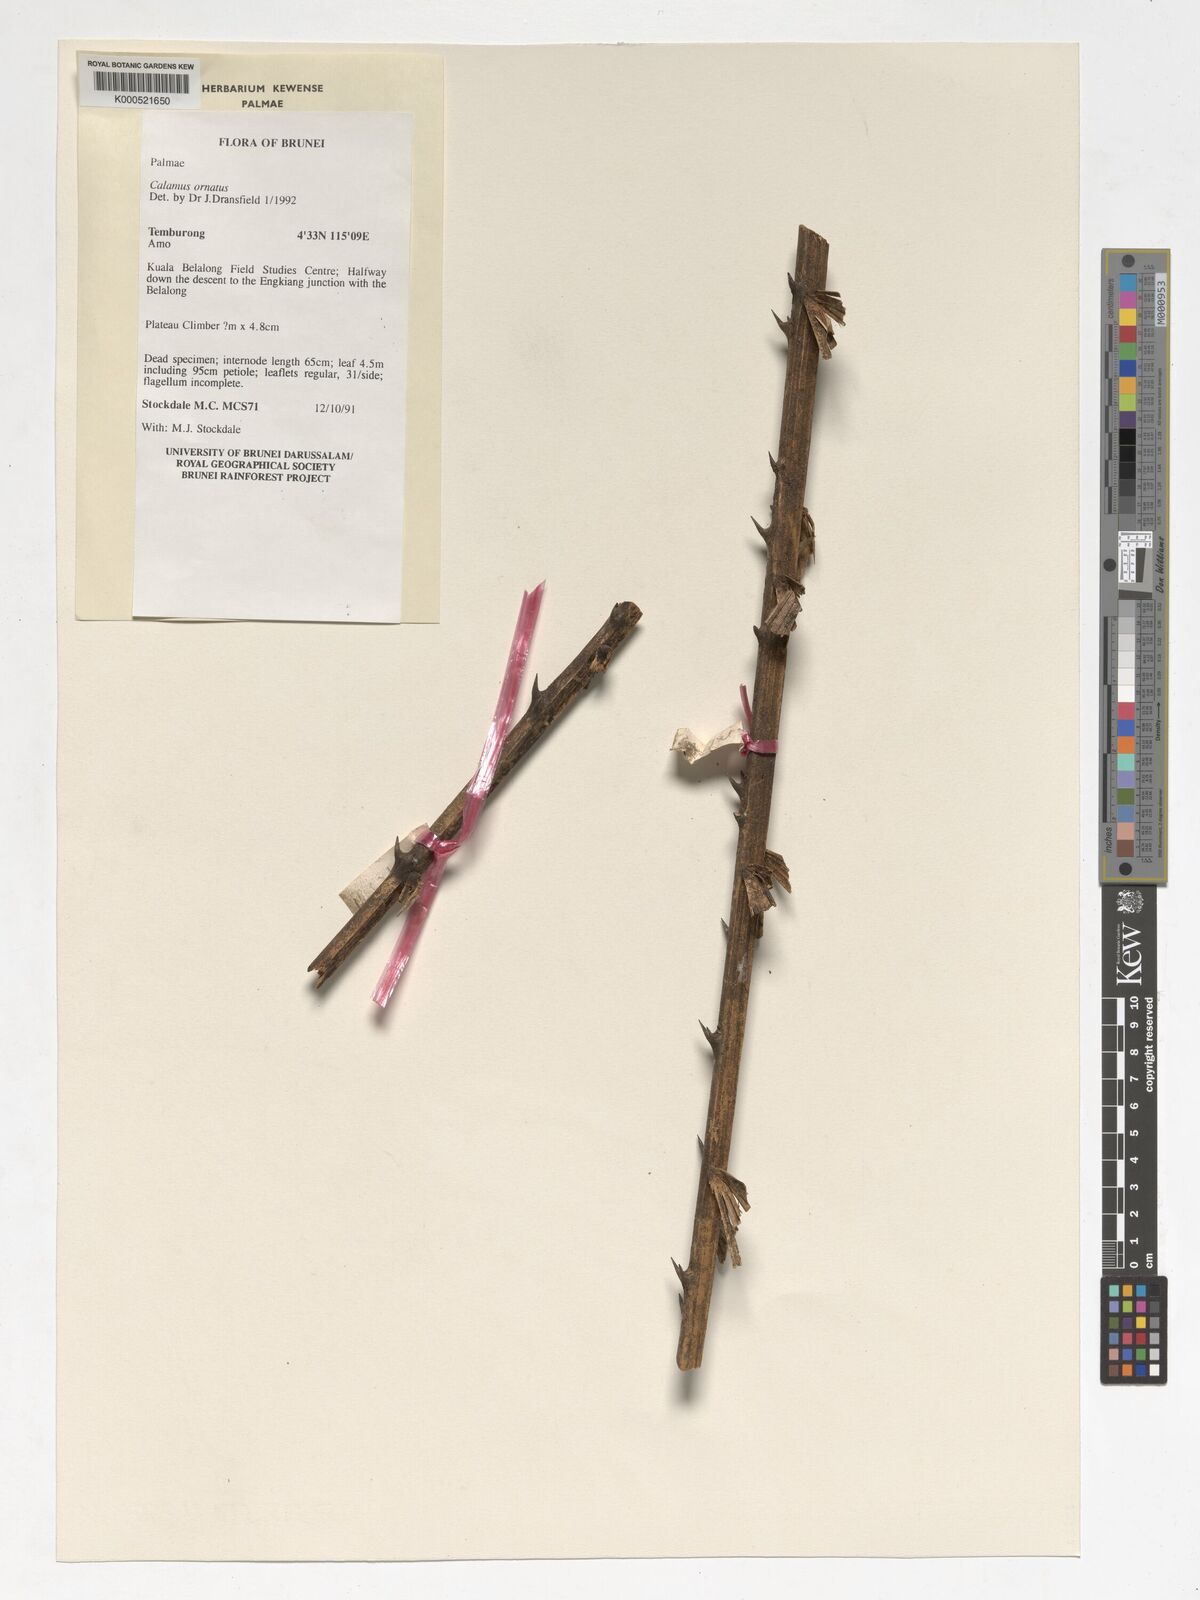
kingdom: Plantae
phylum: Tracheophyta
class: Liliopsida
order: Arecales
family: Arecaceae
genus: Calamus
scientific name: Calamus ornatus
